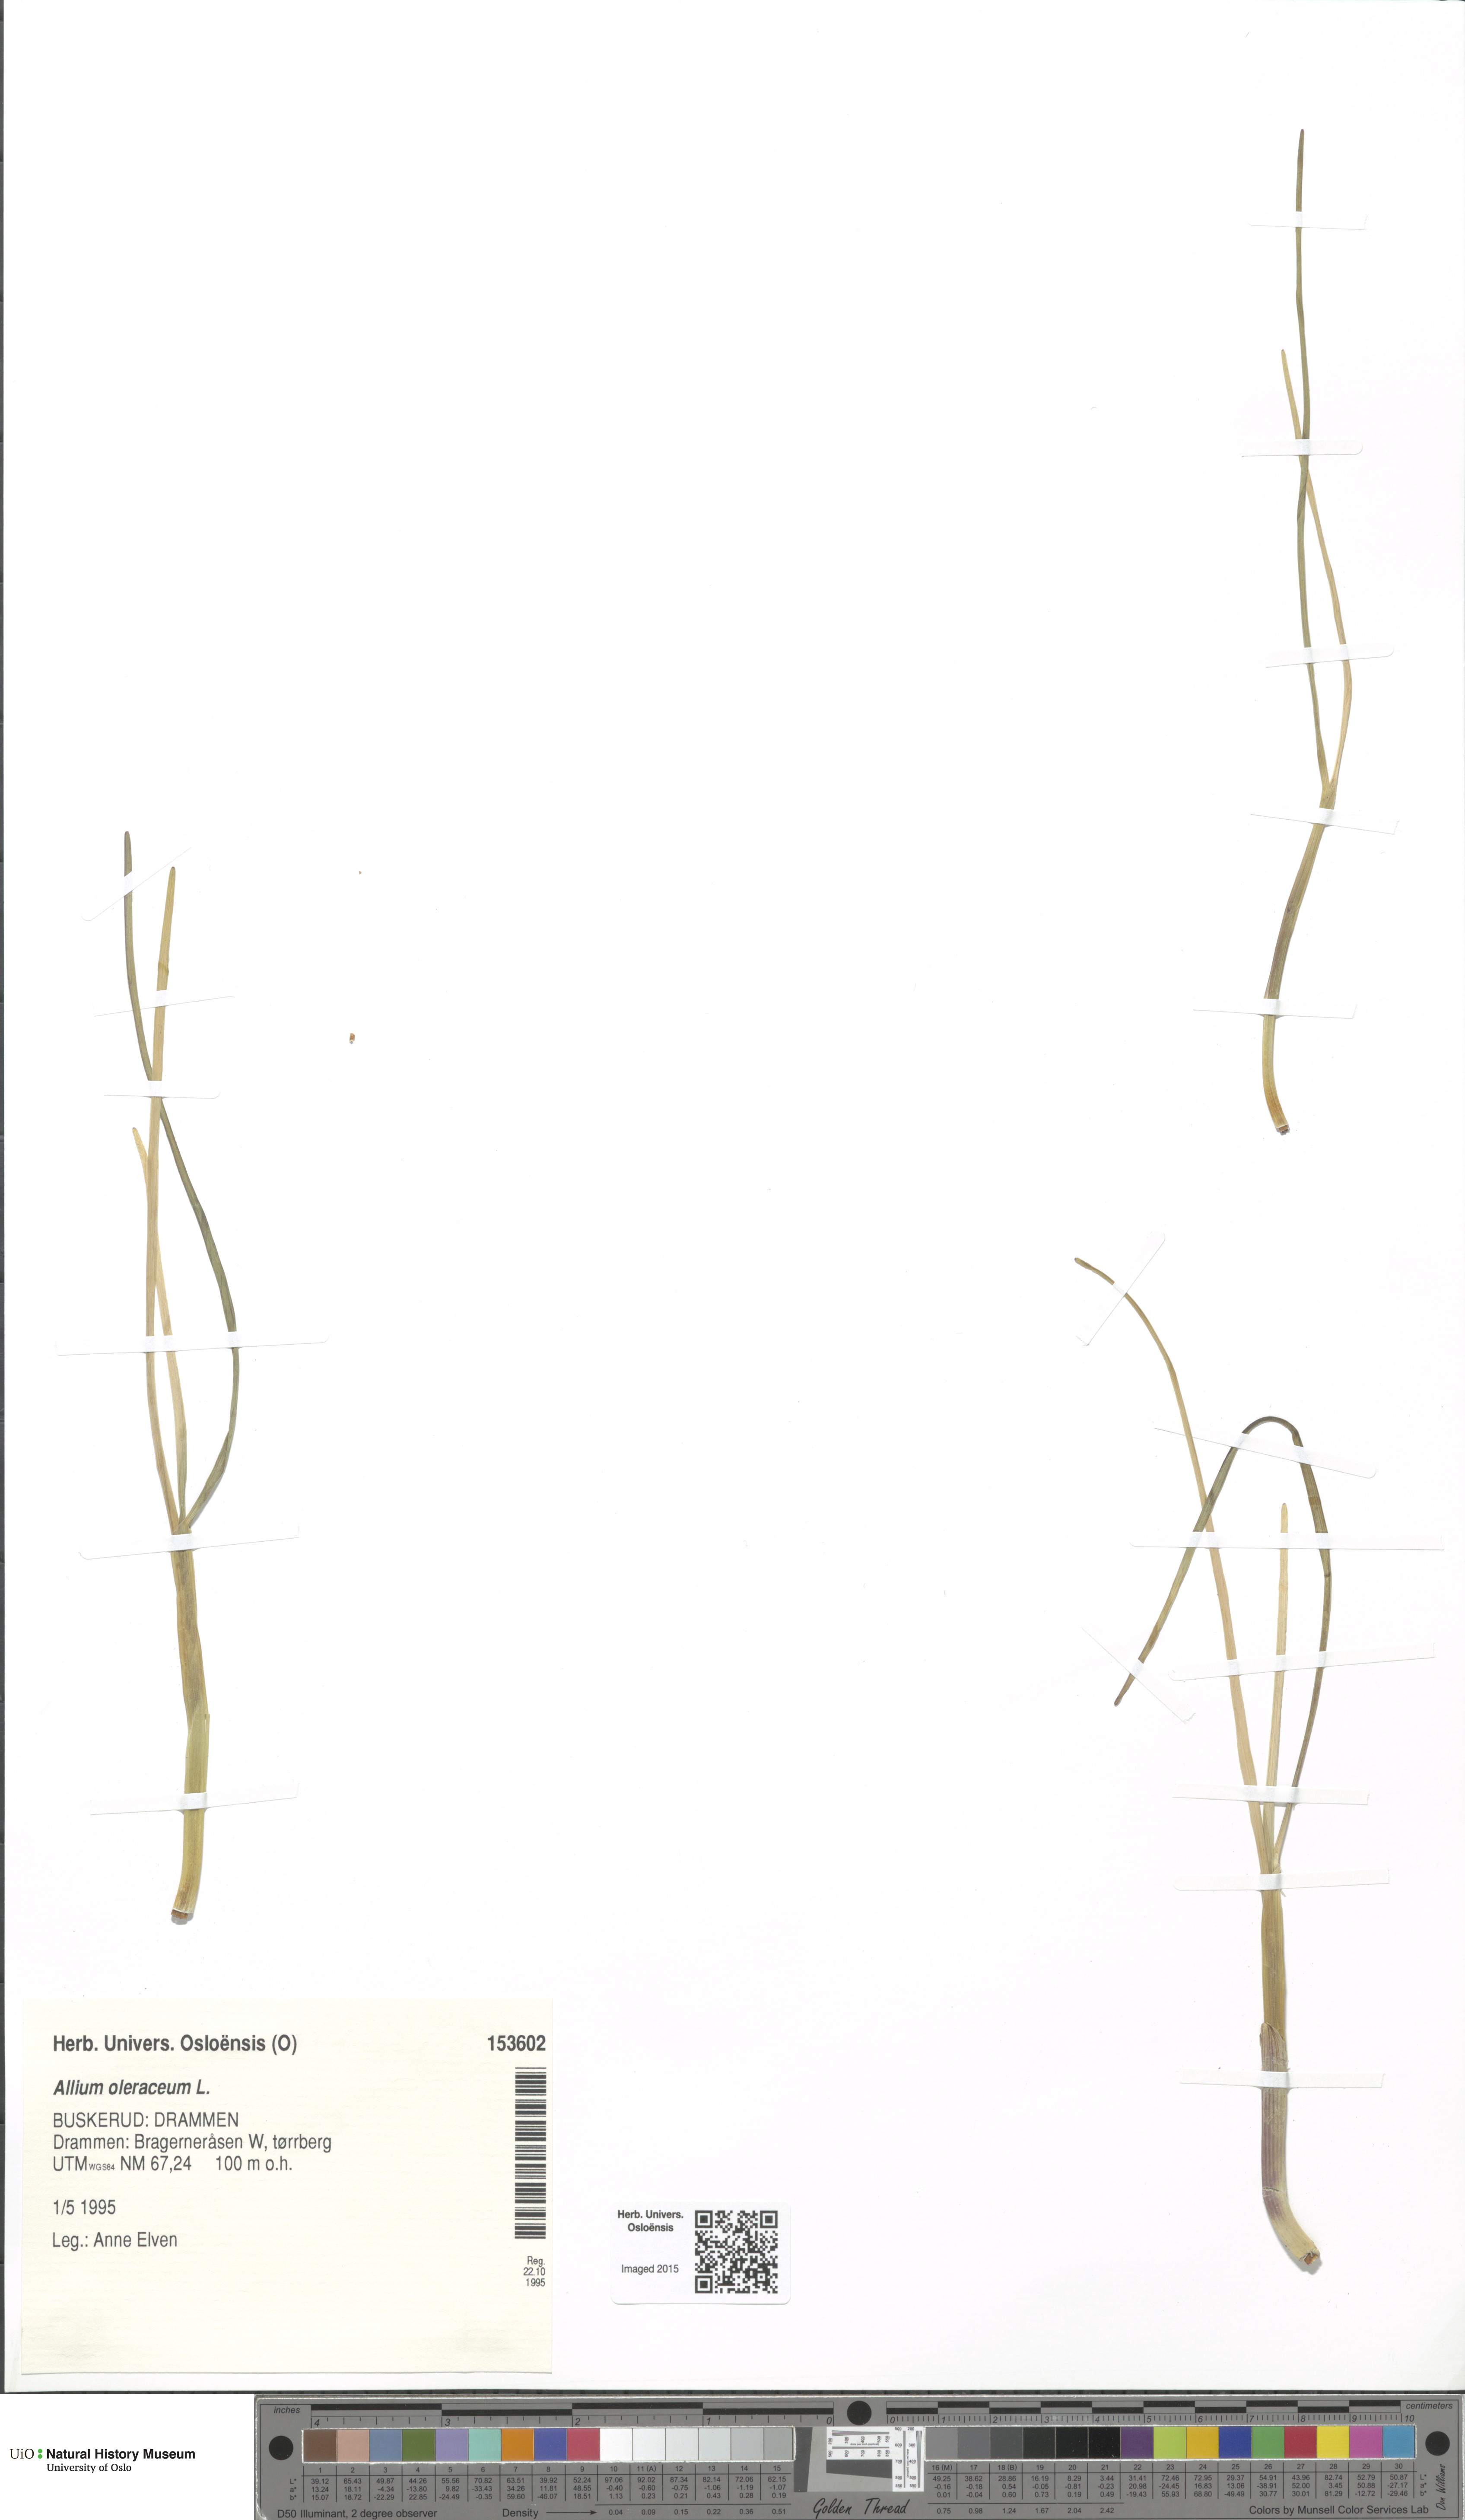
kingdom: Plantae
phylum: Tracheophyta
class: Liliopsida
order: Asparagales
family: Amaryllidaceae
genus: Allium
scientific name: Allium oleraceum
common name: Field garlic
